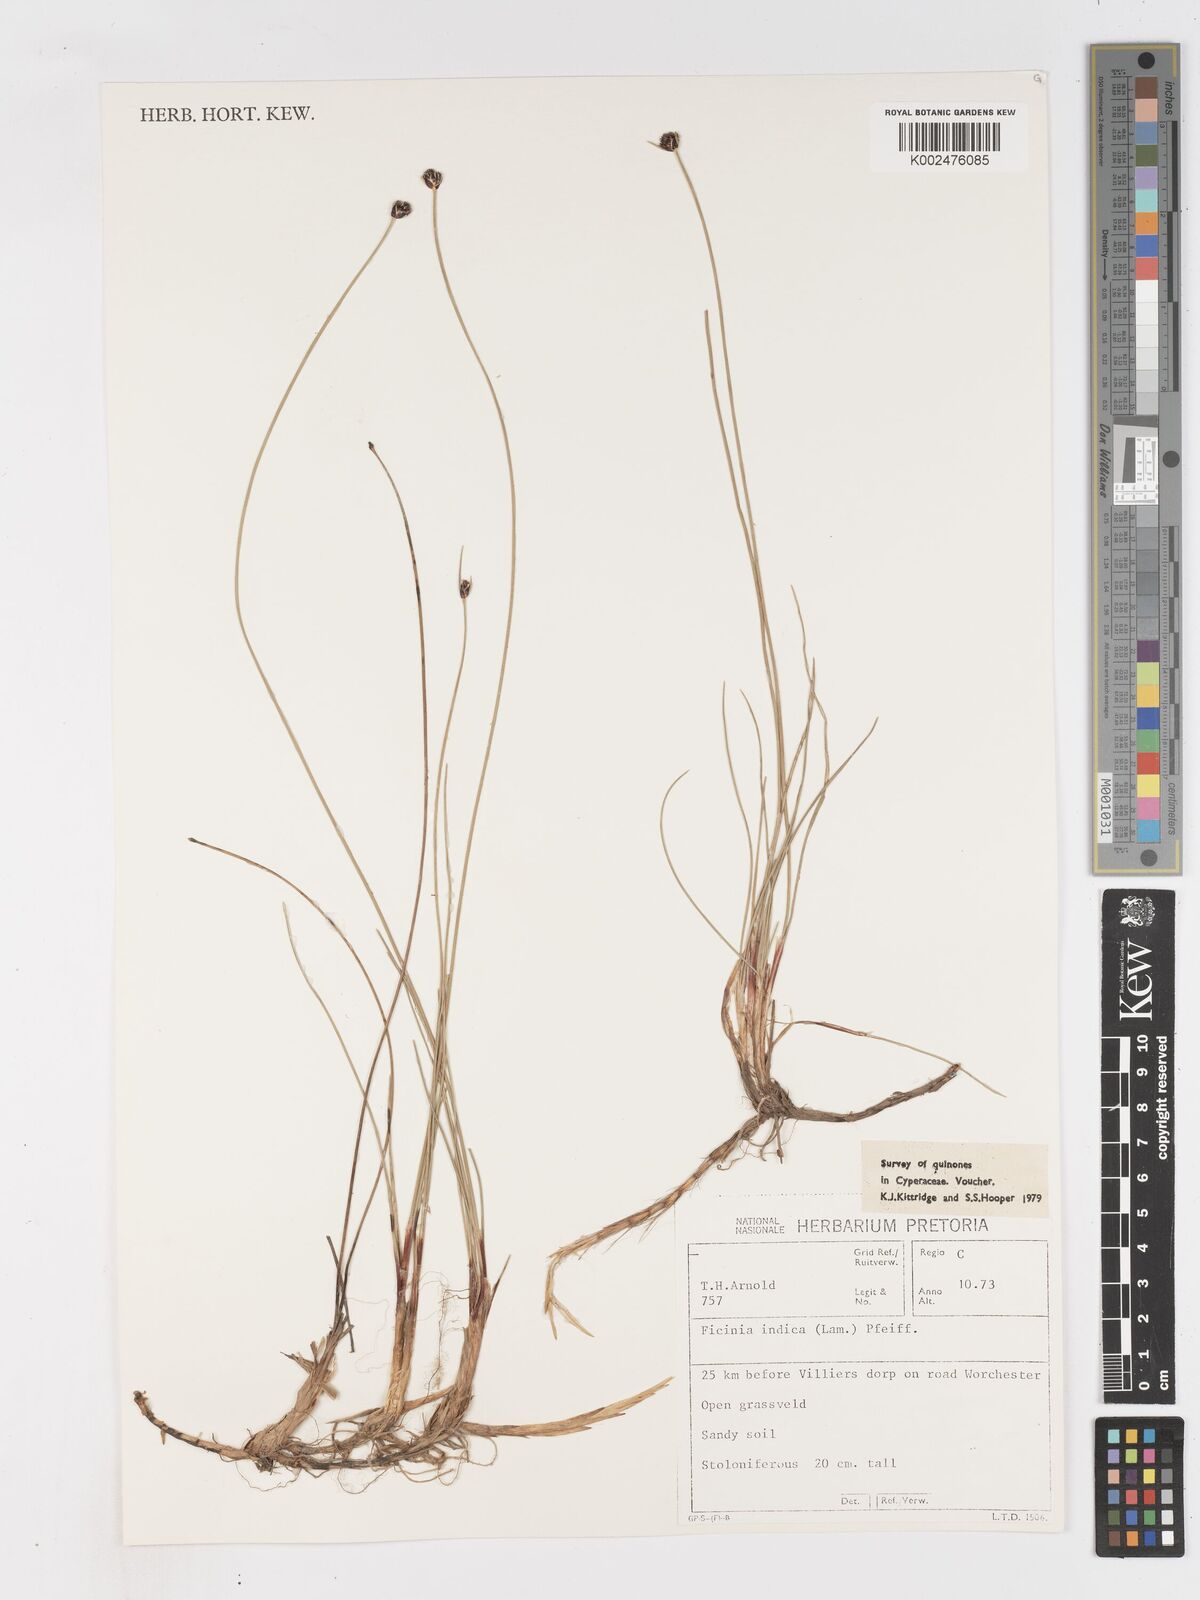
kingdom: Plantae
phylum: Tracheophyta
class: Liliopsida
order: Poales
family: Cyperaceae
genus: Ficinia
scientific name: Ficinia indica
